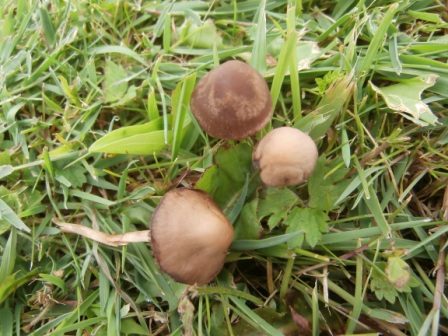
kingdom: Fungi
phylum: Basidiomycota
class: Agaricomycetes
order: Agaricales
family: Bolbitiaceae
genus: Panaeolina
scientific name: Panaeolina foenisecii
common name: høslætsvamp
